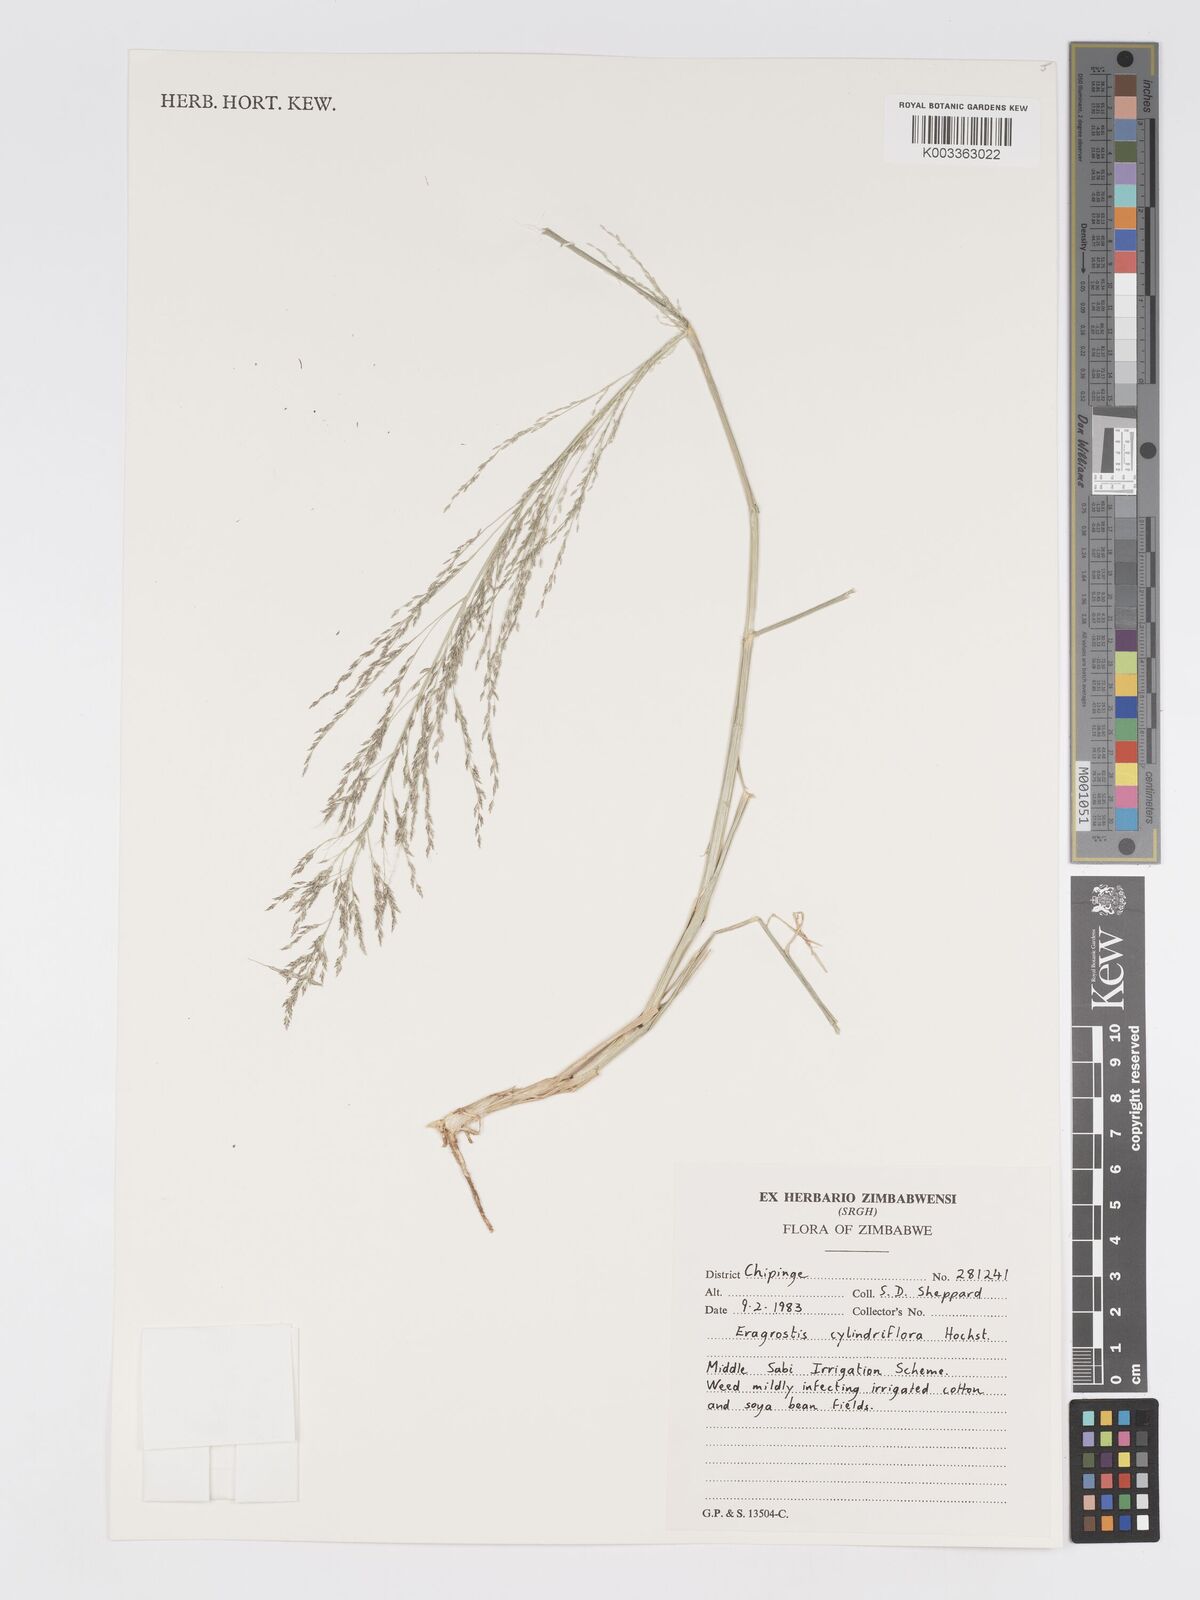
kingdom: Plantae
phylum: Tracheophyta
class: Liliopsida
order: Poales
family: Poaceae
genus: Eragrostis
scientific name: Eragrostis cylindriflora
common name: Cylinderflower lovegrass
